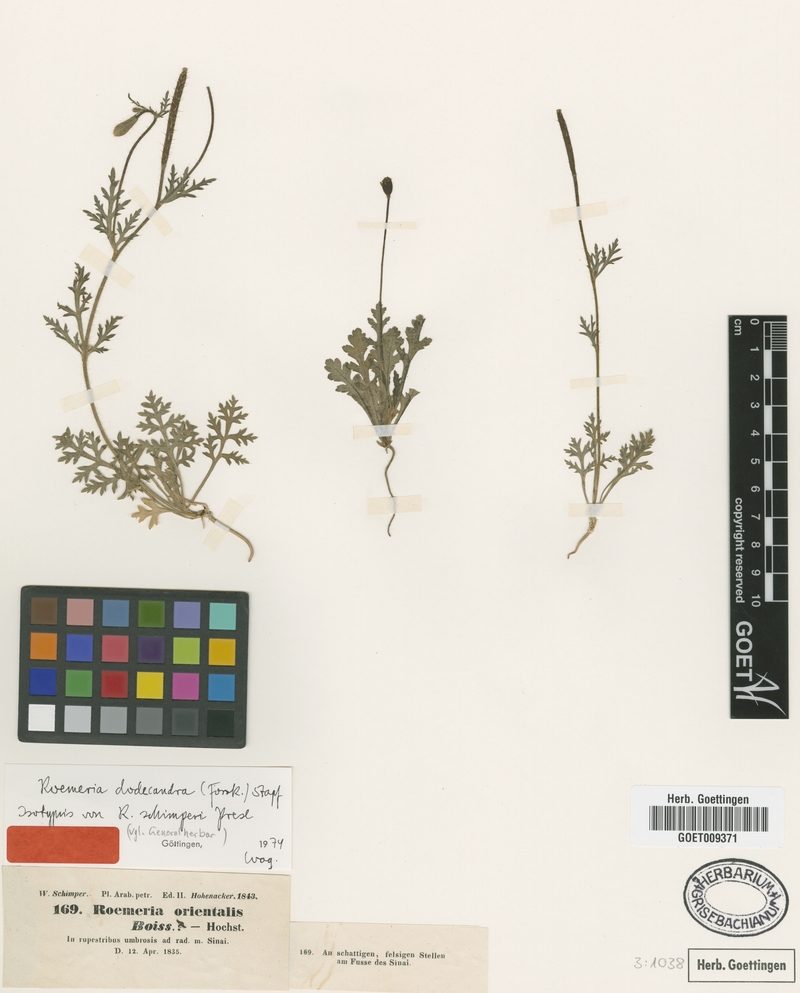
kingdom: Plantae
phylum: Tracheophyta
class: Magnoliopsida
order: Ranunculales
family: Papaveraceae
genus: Roemeria
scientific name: Roemeria hybrida
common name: Violet horned-poppy
